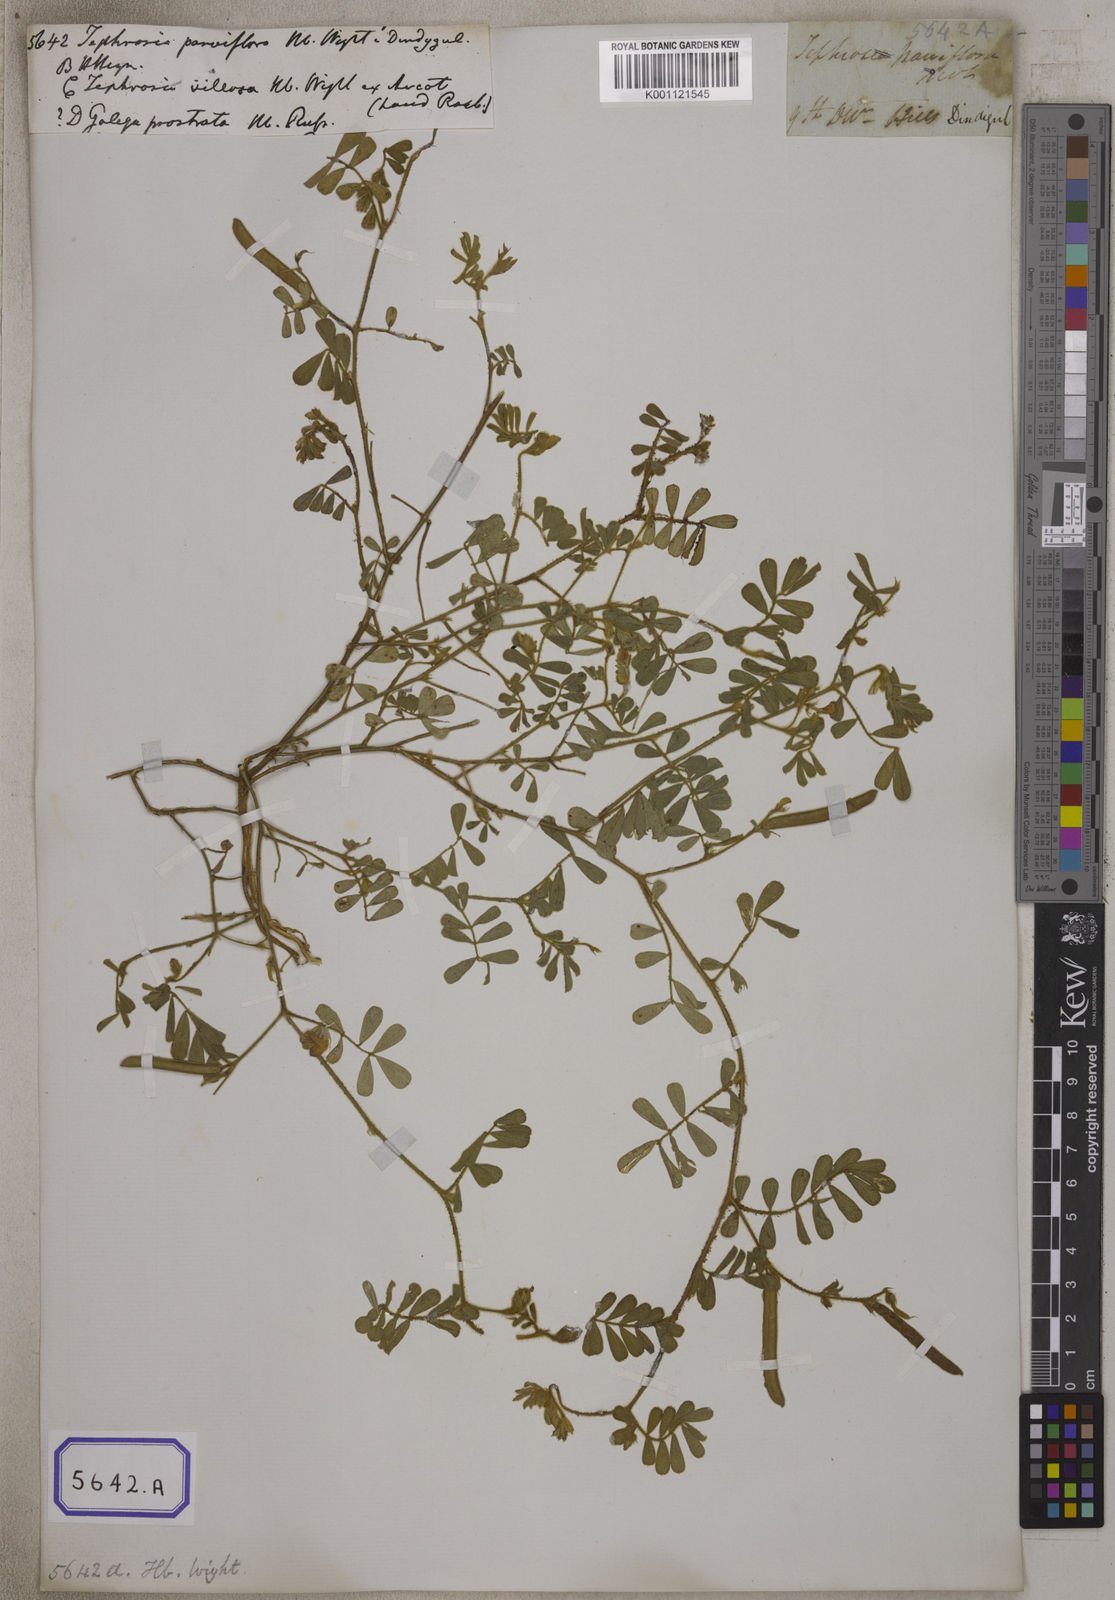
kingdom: Plantae
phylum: Tracheophyta
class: Magnoliopsida
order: Fabales
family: Fabaceae
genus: Tephrosia
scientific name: Tephrosia purpurea
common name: Fishpoison
